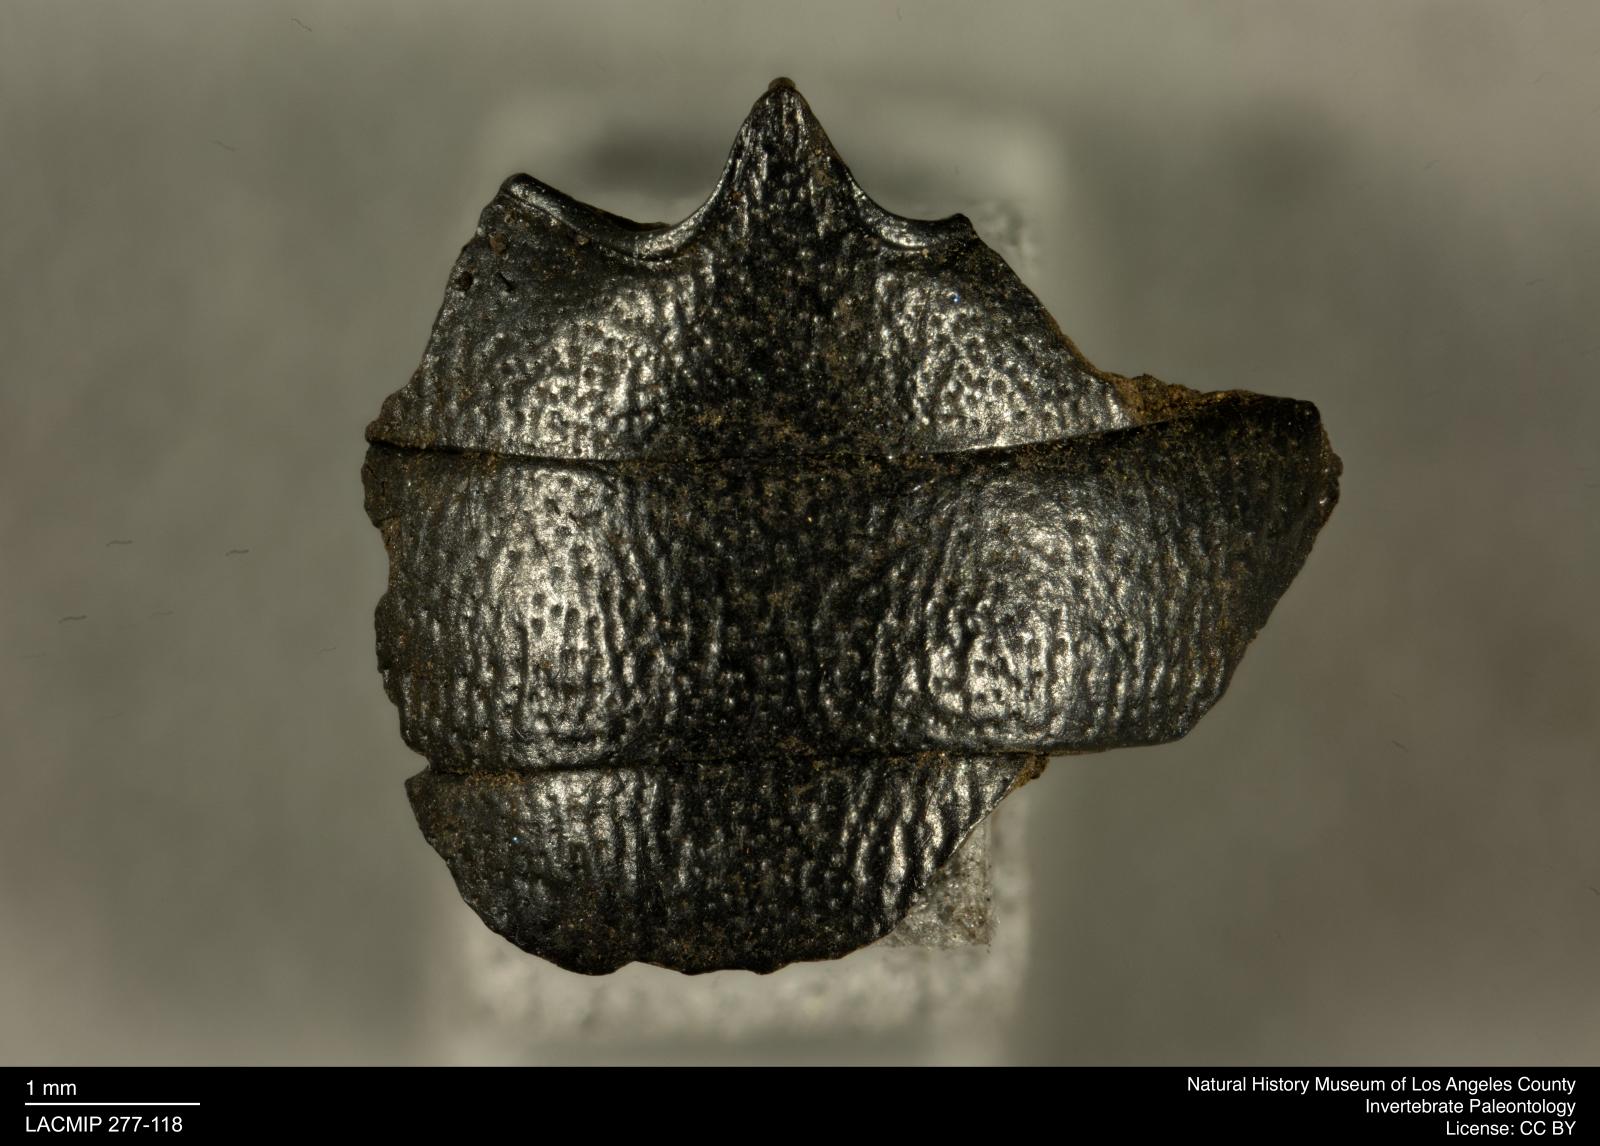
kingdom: Animalia
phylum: Arthropoda
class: Insecta
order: Coleoptera
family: Tenebrionidae
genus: Coniontis
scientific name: Coniontis abdominalis
